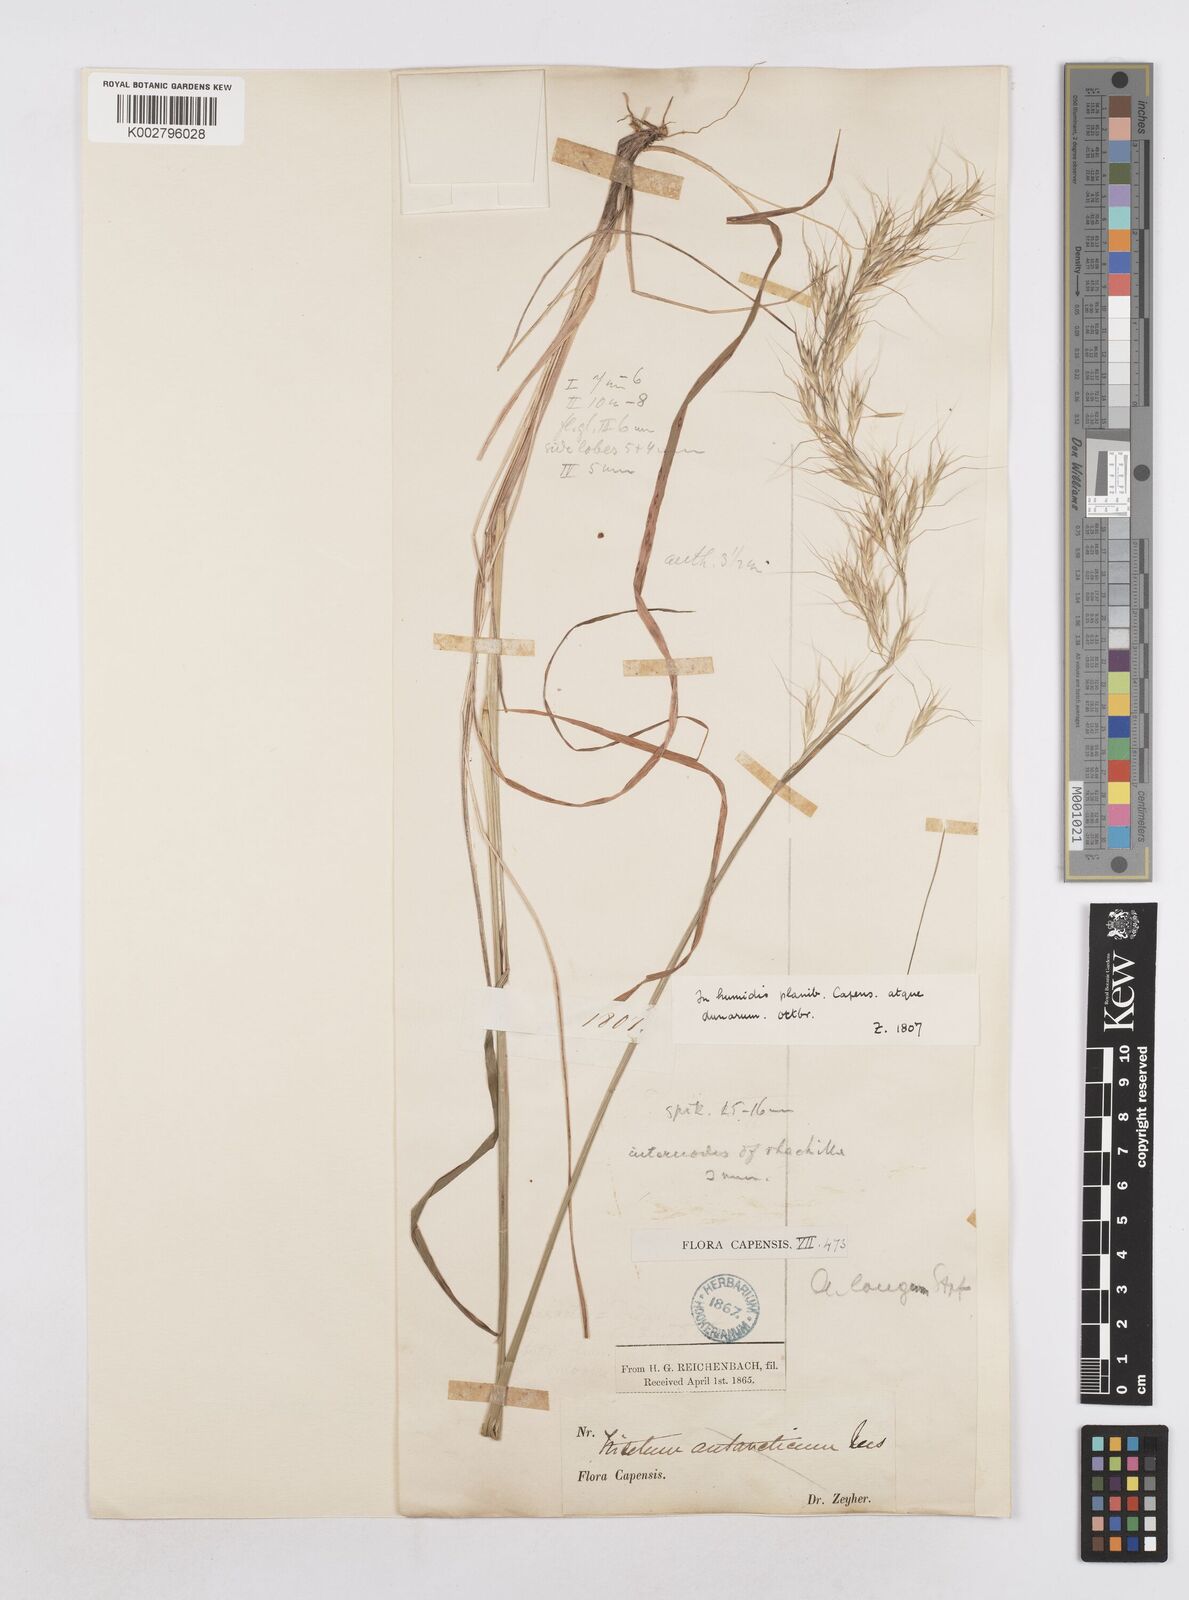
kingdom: Plantae
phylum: Tracheophyta
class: Liliopsida
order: Poales
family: Poaceae
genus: Trisetopsis
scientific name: Trisetopsis longa
